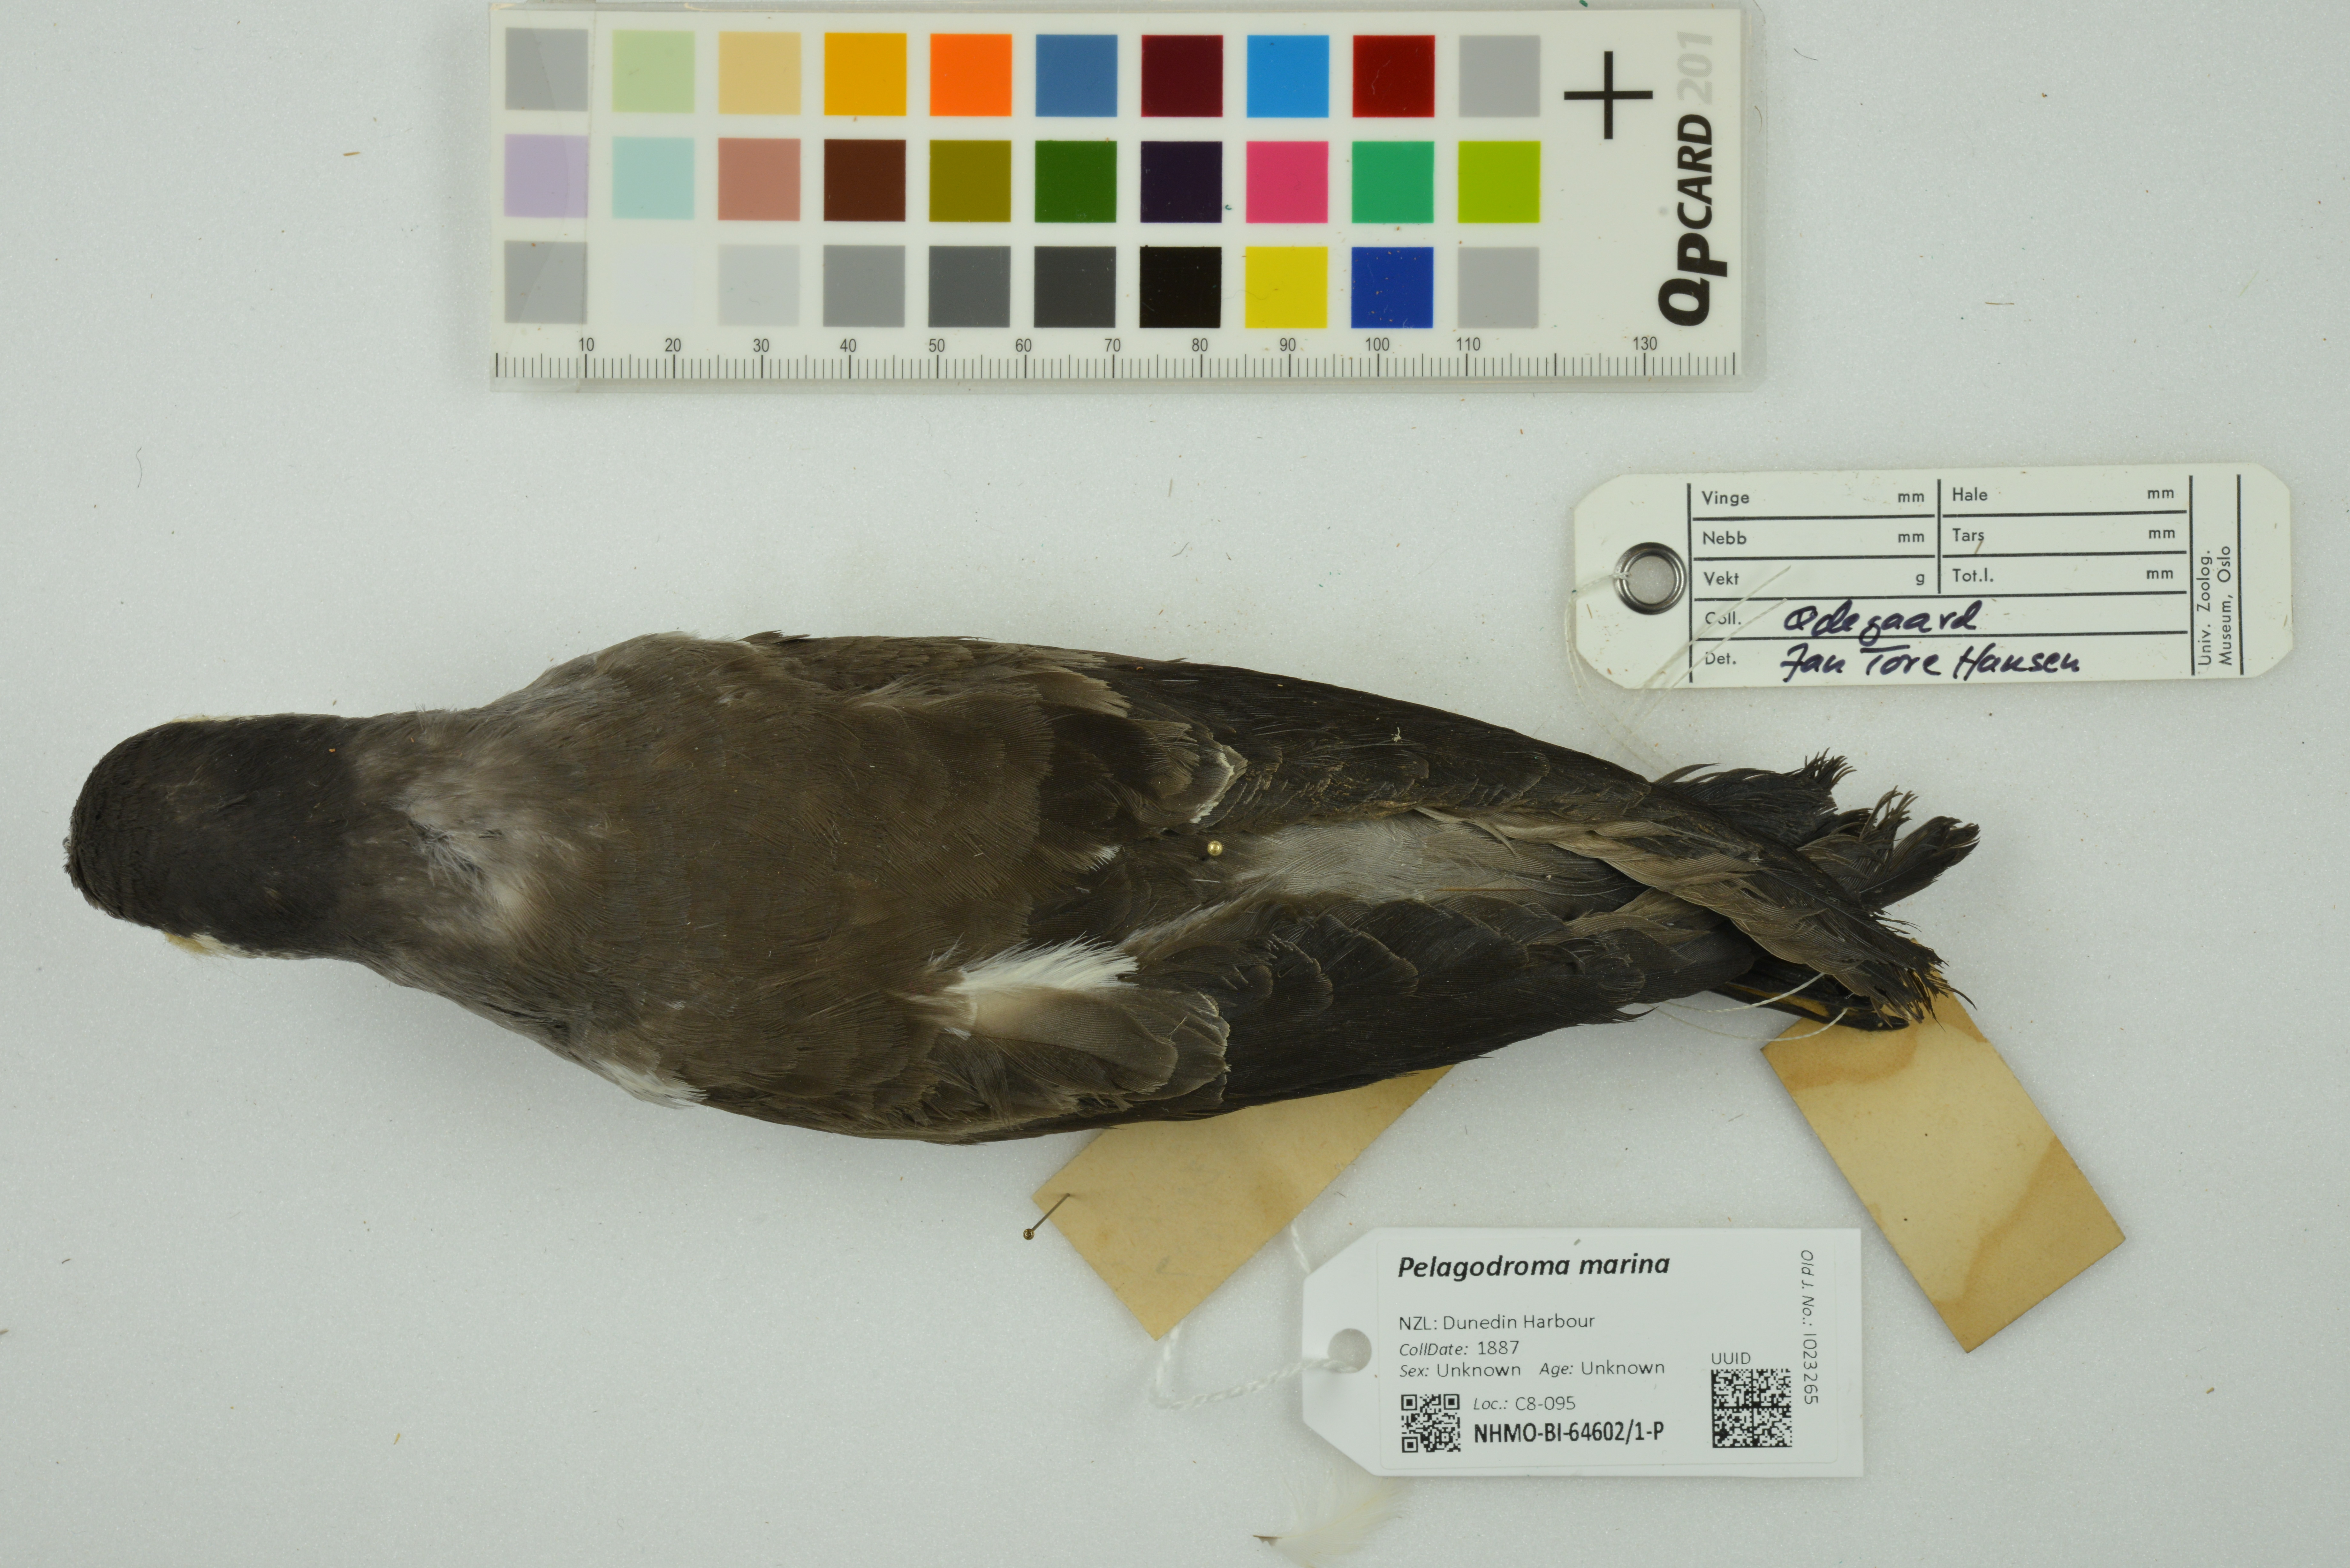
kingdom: Animalia
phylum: Chordata
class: Aves
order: Procellariiformes
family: Hydrobatidae
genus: Pelagodroma
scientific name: Pelagodroma marina
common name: White-faced storm-petrel
